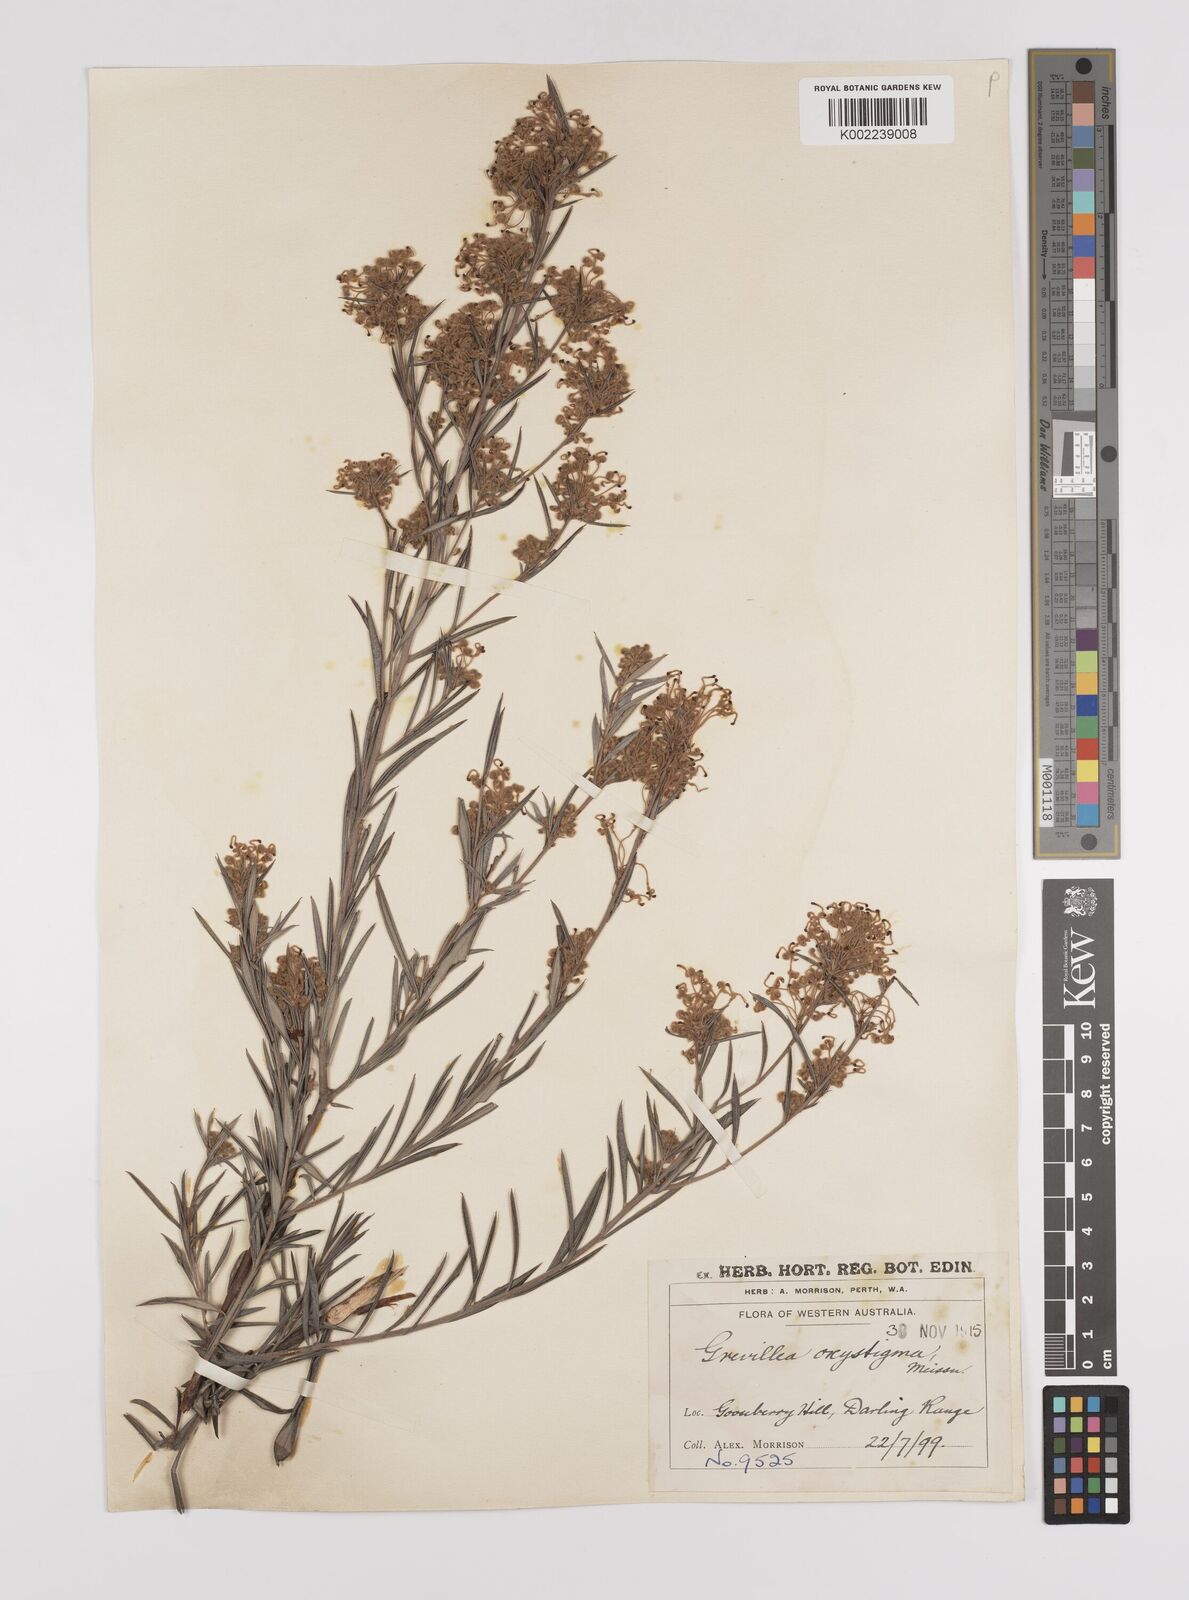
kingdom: Plantae
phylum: Tracheophyta
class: Magnoliopsida
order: Proteales
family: Proteaceae
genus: Grevillea
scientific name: Grevillea pilulifera
